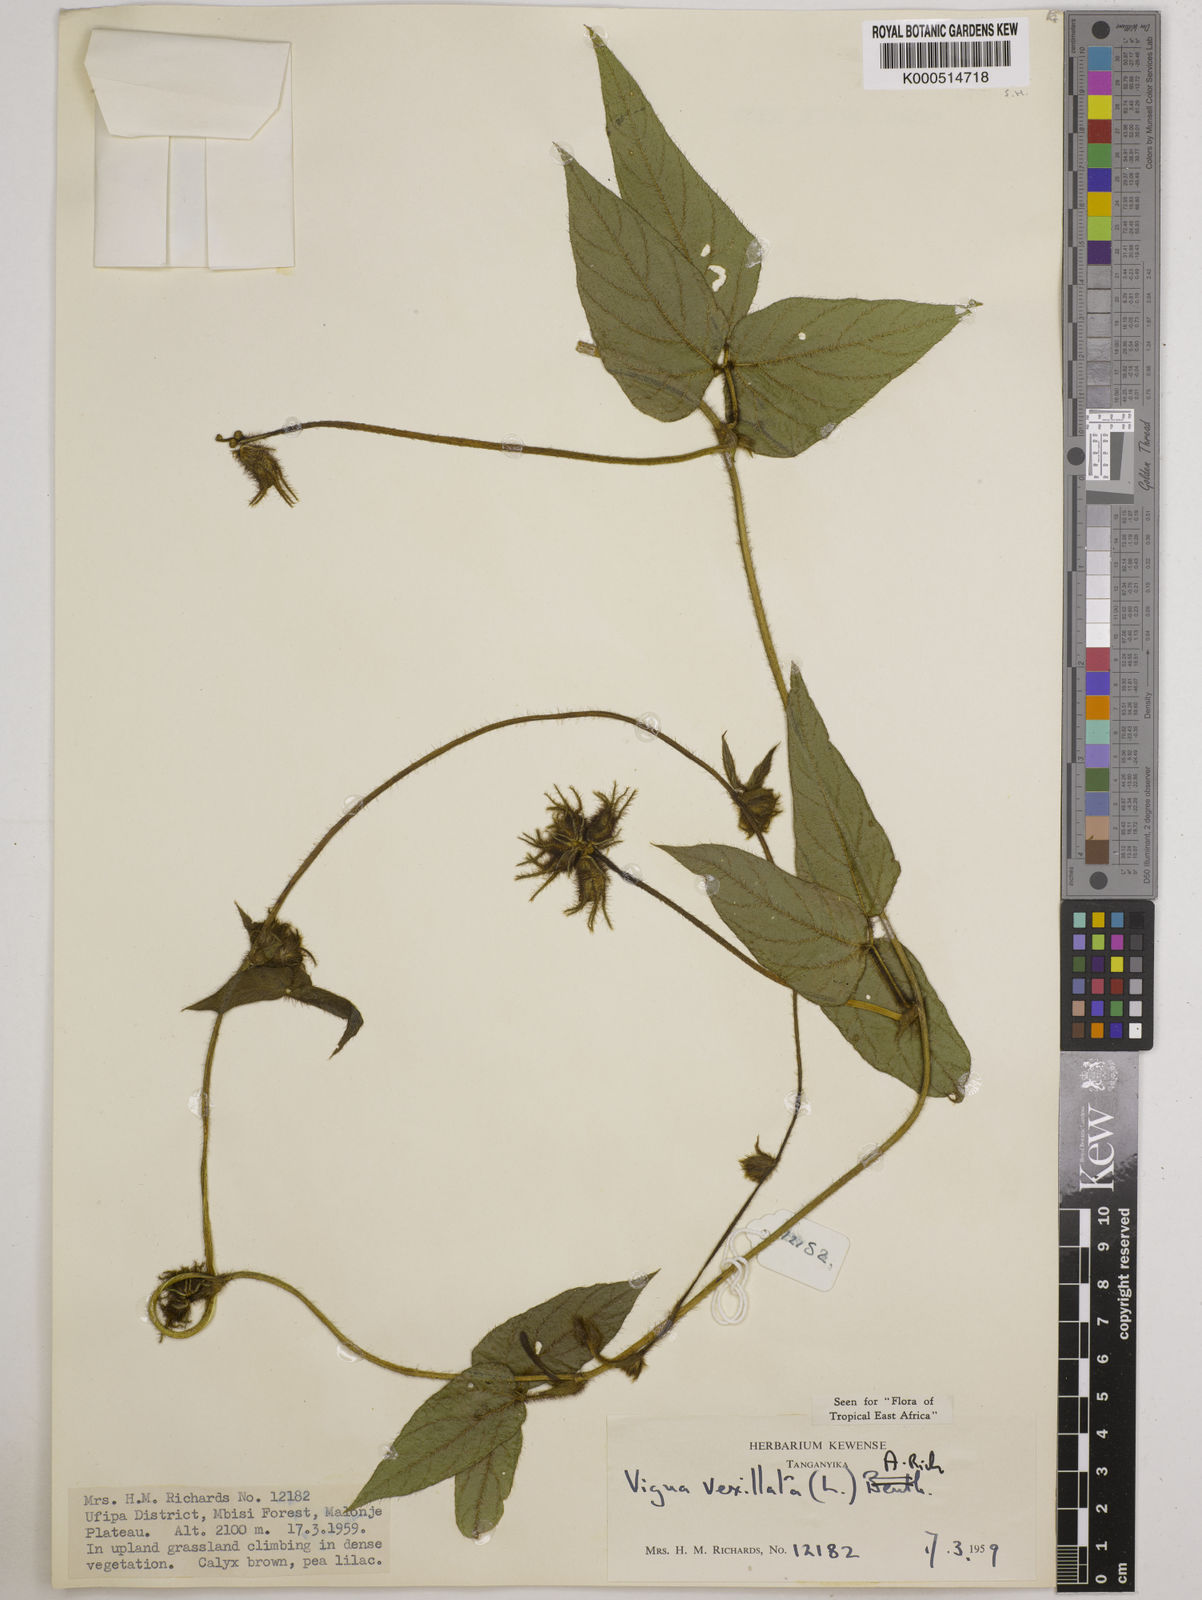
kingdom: Plantae
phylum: Tracheophyta
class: Magnoliopsida
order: Fabales
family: Fabaceae
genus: Vigna
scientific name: Vigna vexillata
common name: Zombi pea
